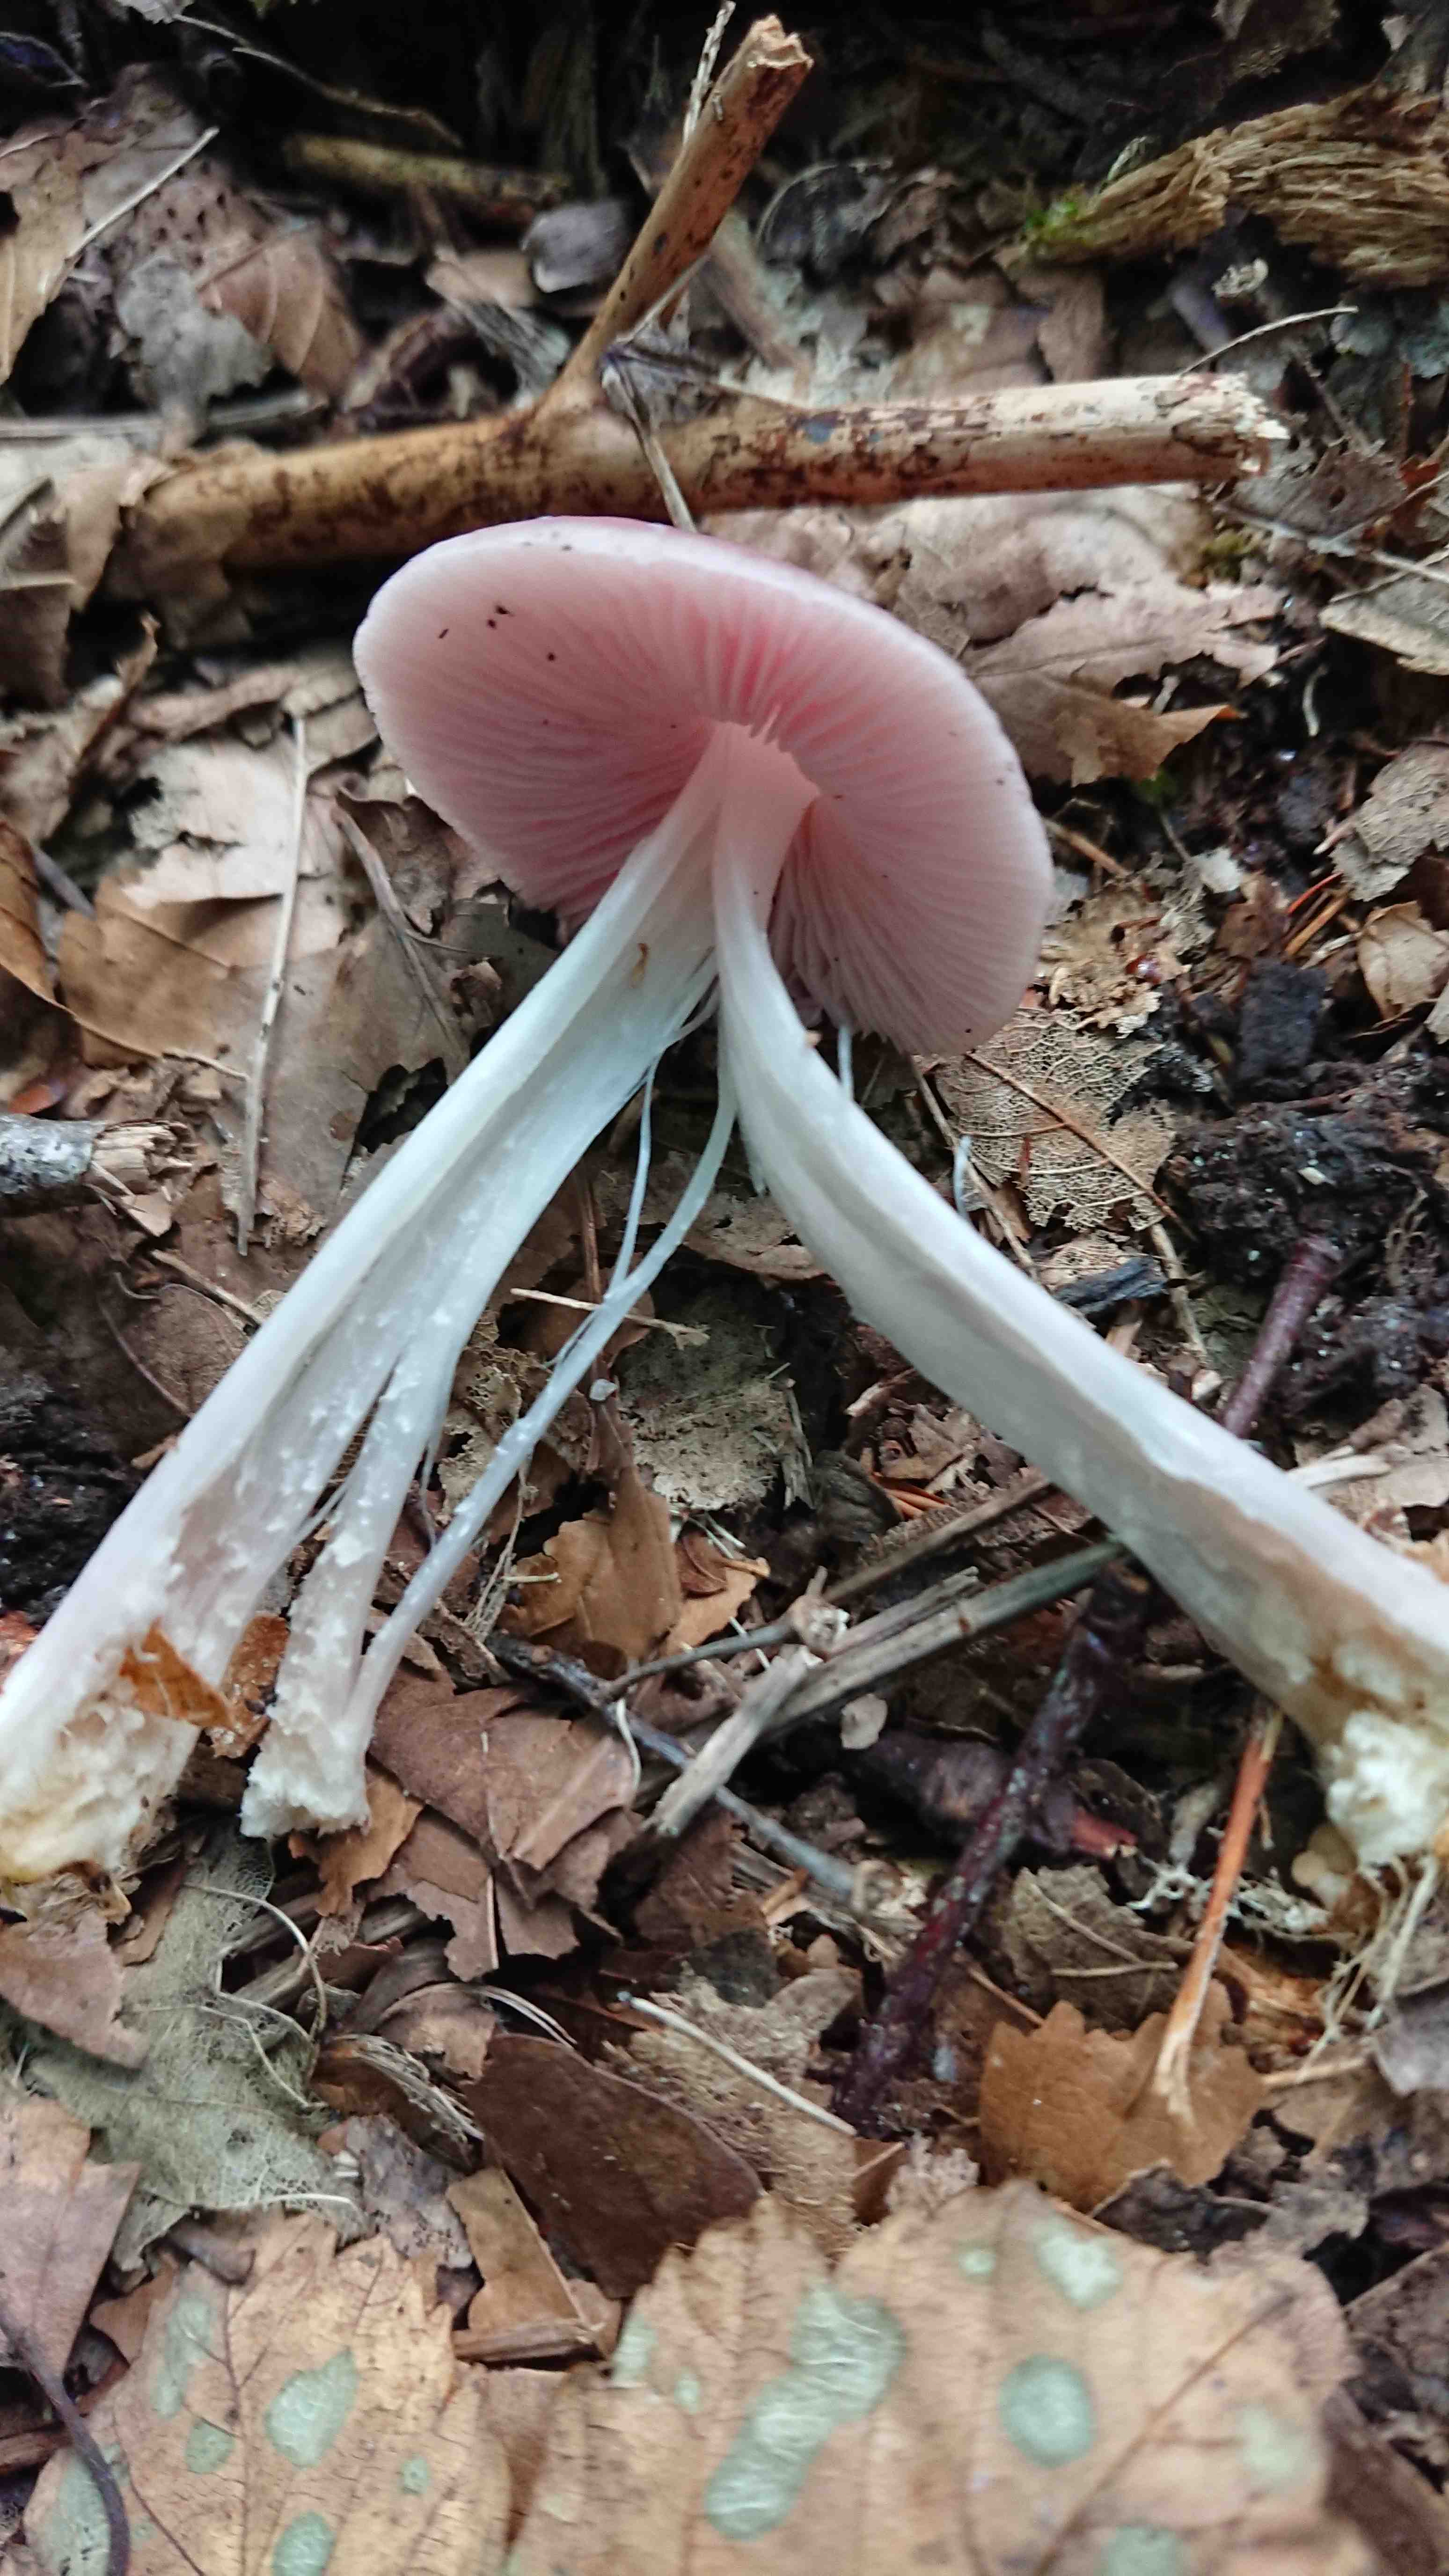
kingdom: Fungi
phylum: Basidiomycota
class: Agaricomycetes
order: Agaricales
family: Mycenaceae
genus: Mycena
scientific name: Mycena rosea
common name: rosa huesvamp
